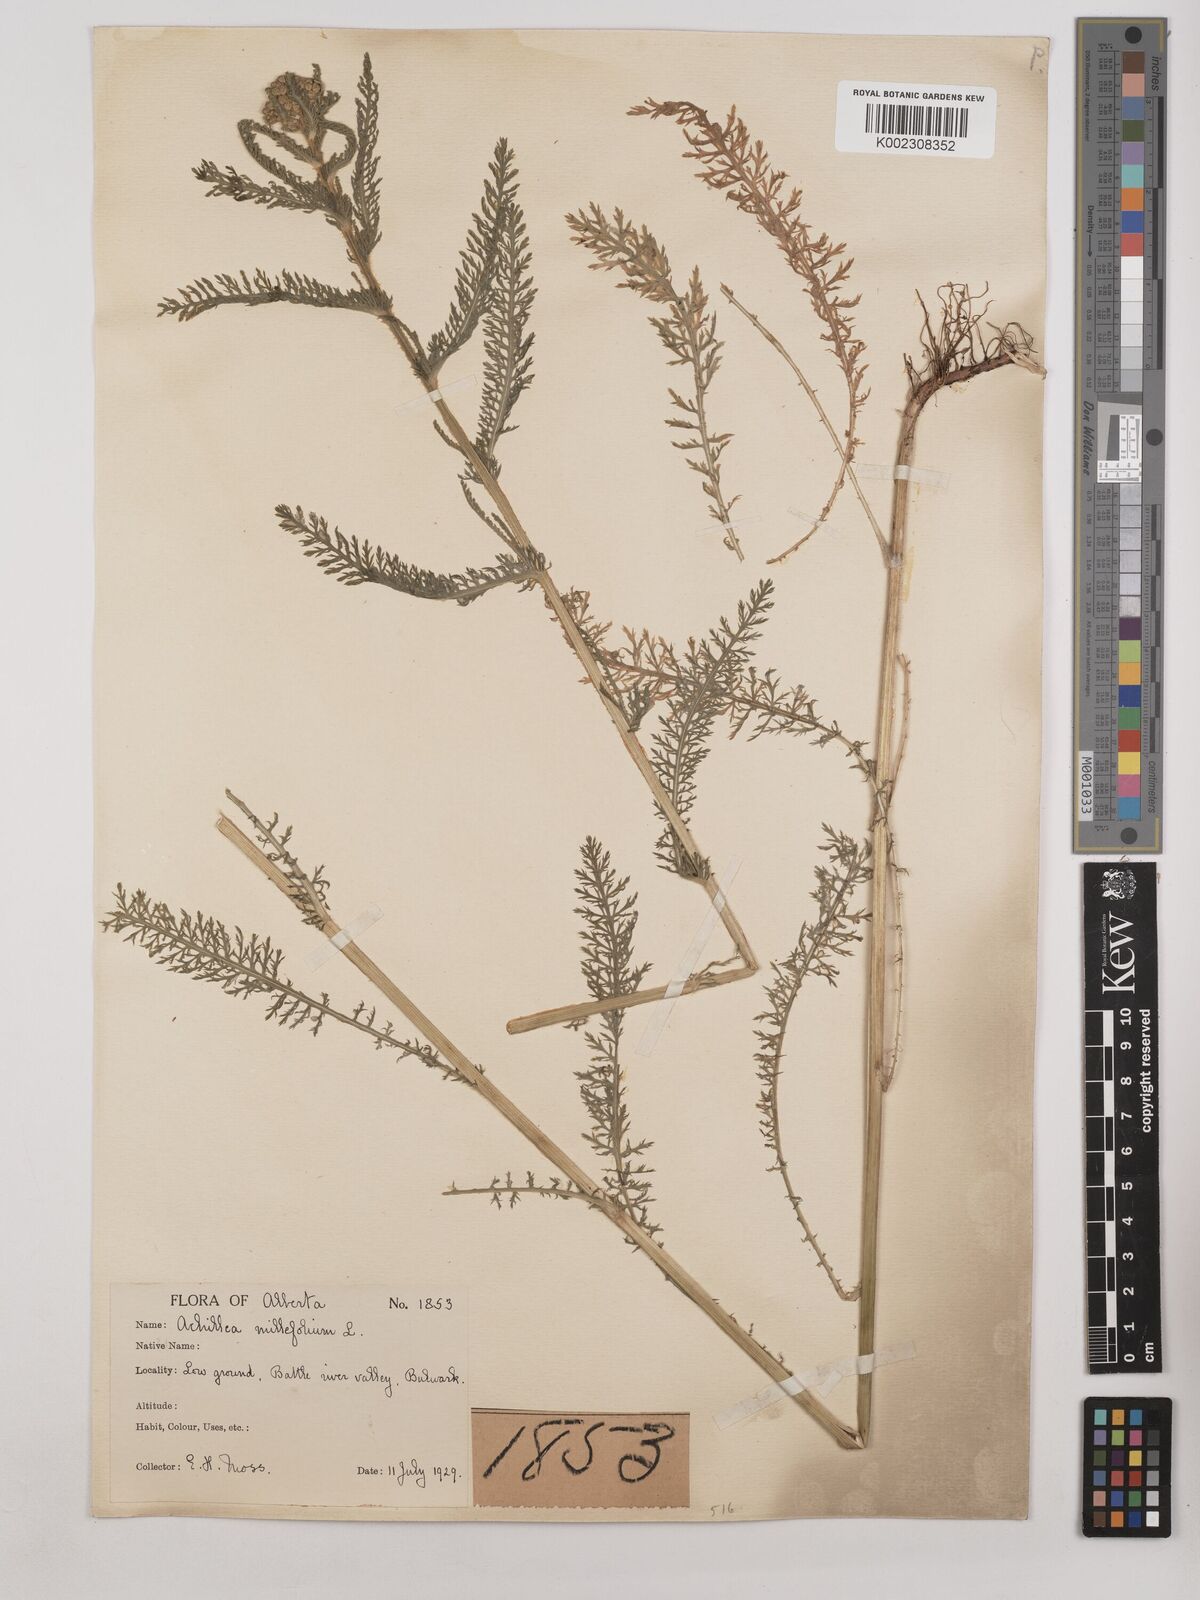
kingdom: Plantae
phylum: Tracheophyta
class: Magnoliopsida
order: Asterales
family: Asteraceae
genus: Achillea
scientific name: Achillea millefolium
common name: Yarrow
